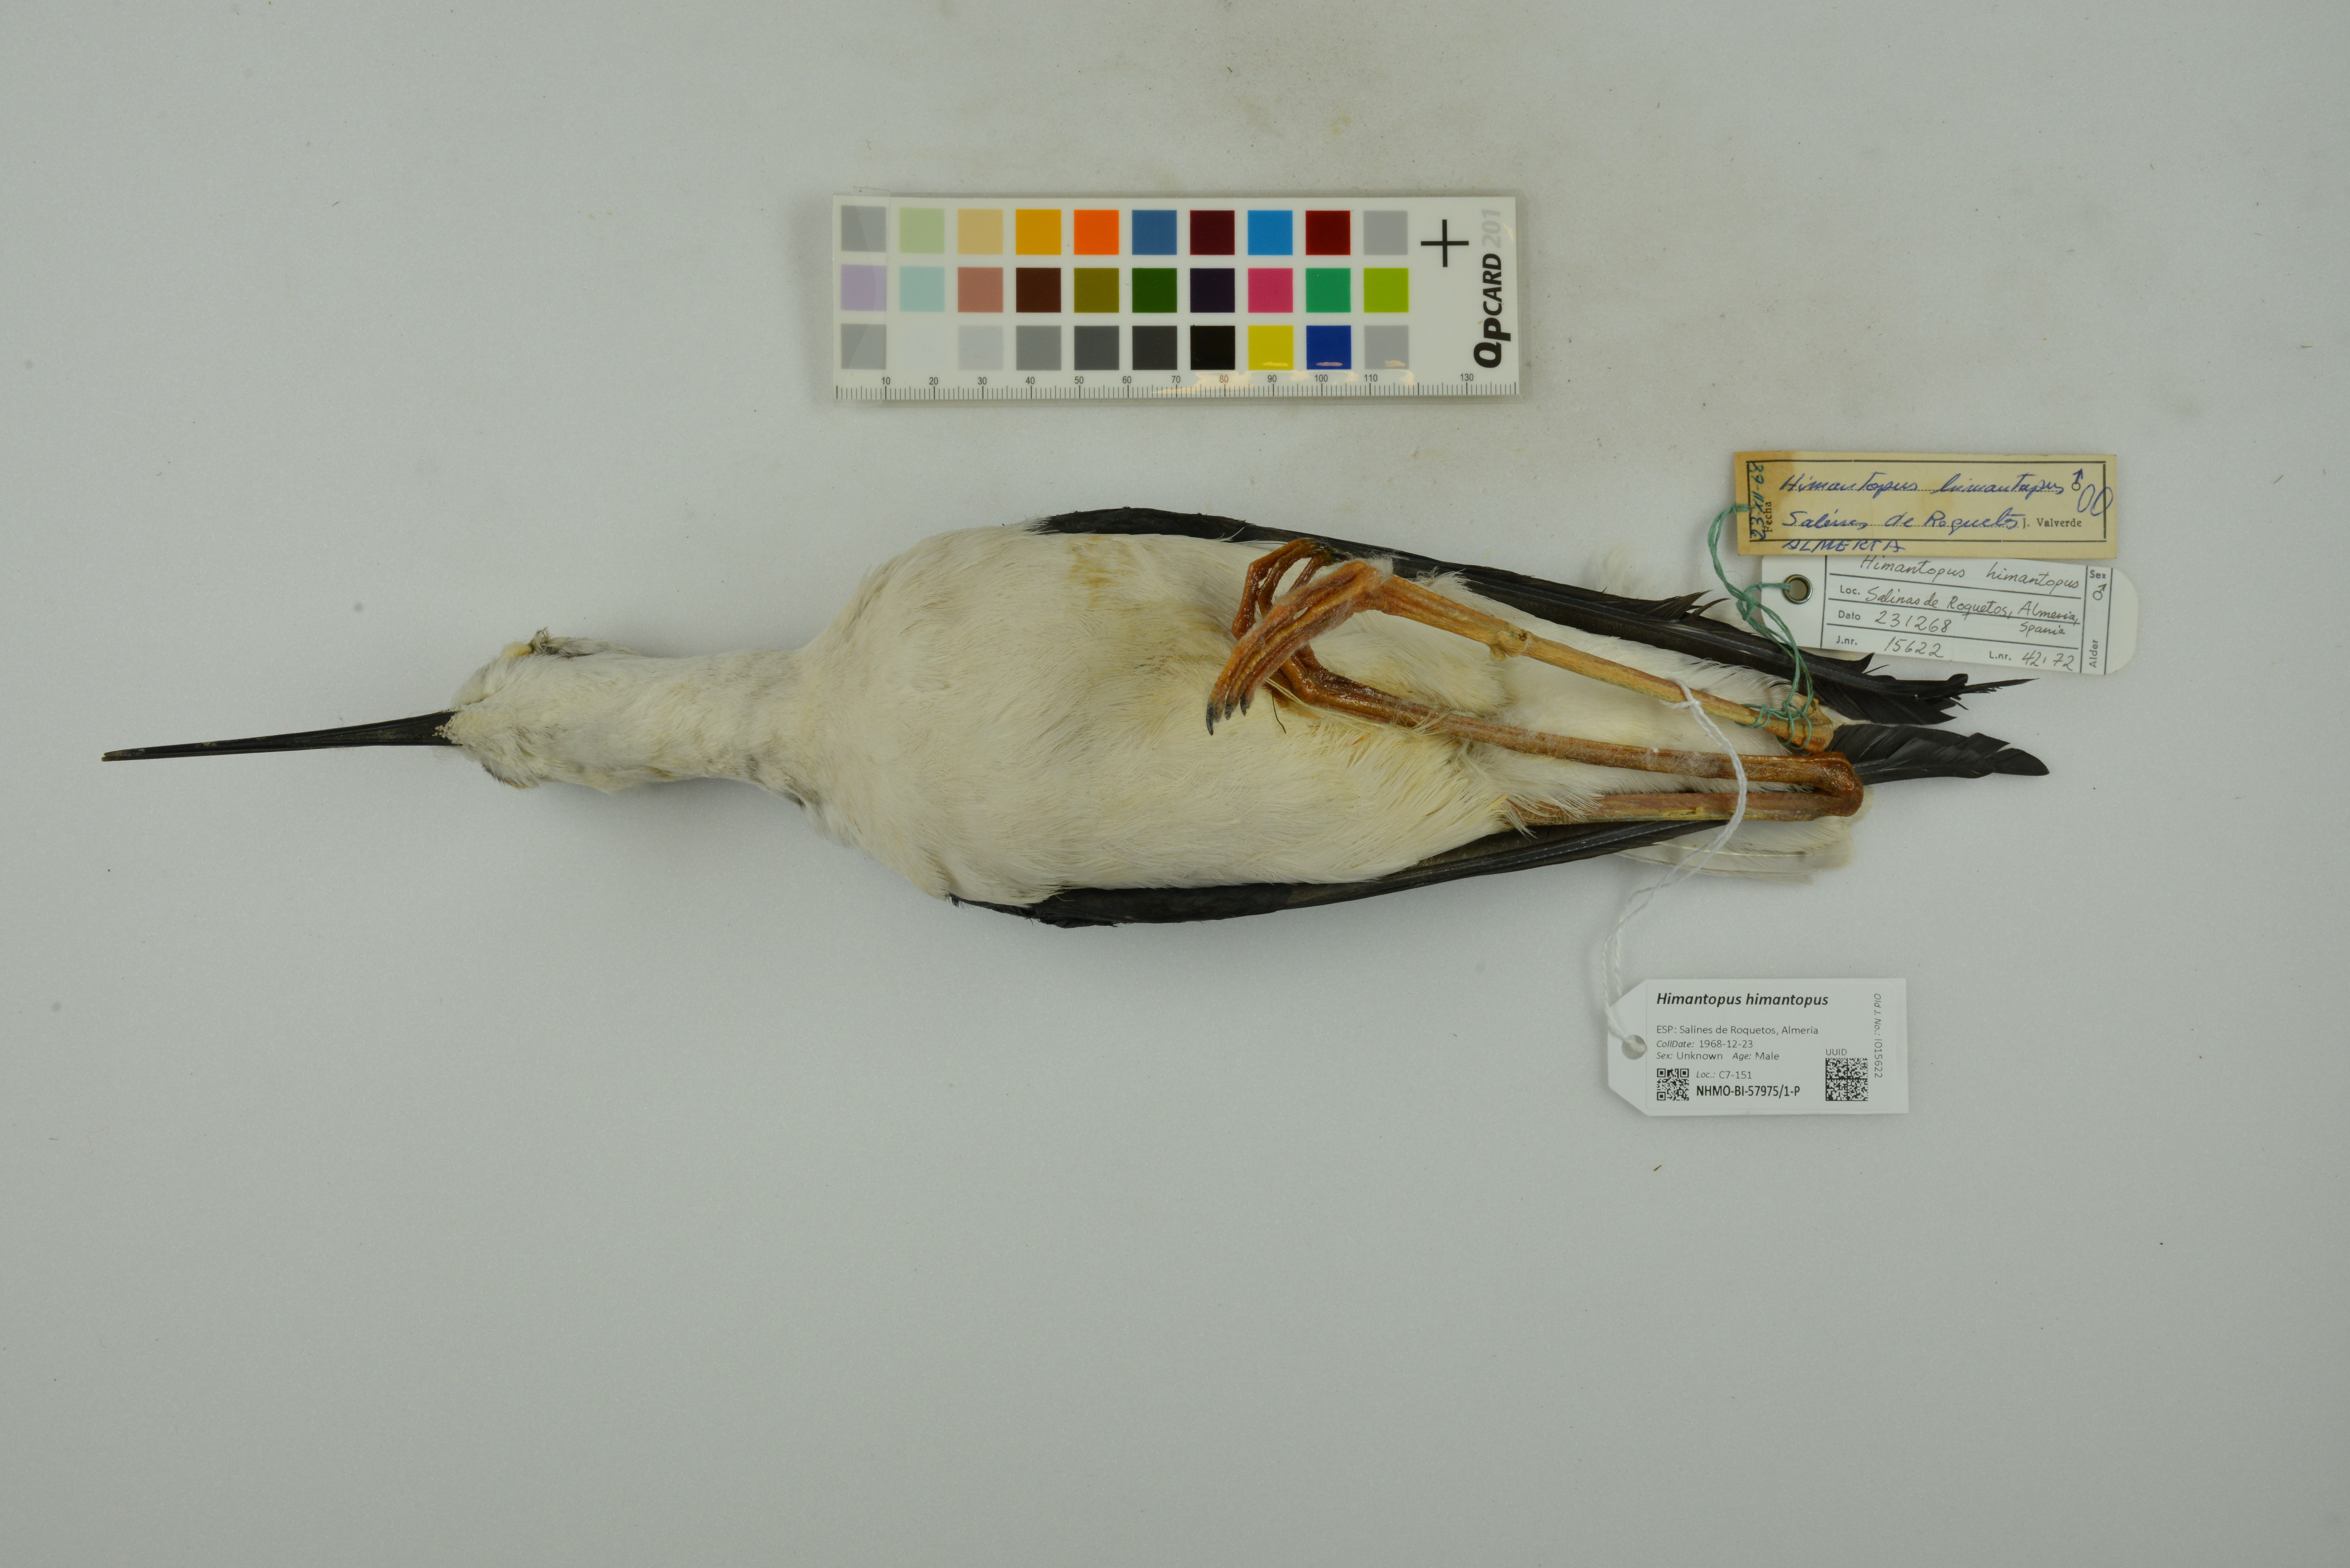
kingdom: Animalia
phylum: Chordata
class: Aves
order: Charadriiformes
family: Recurvirostridae
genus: Himantopus
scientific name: Himantopus himantopus
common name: Black-winged stilt
